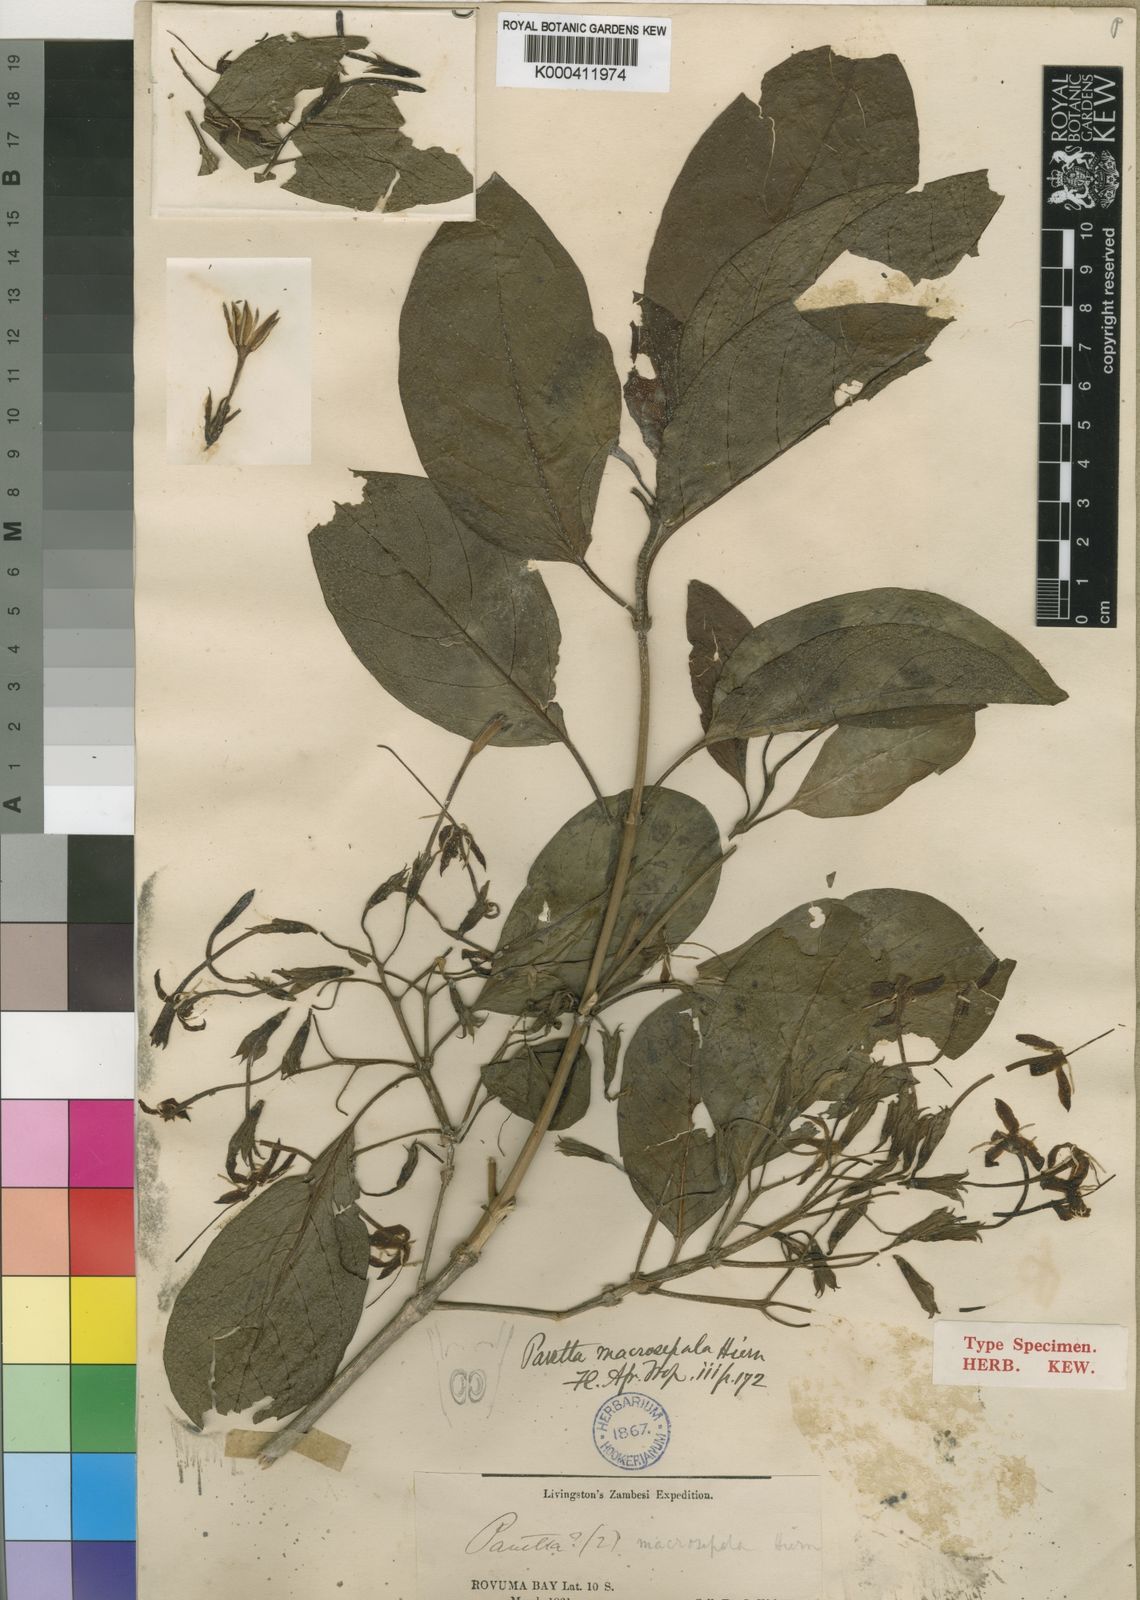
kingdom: Plantae
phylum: Tracheophyta
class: Magnoliopsida
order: Gentianales
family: Rubiaceae
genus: Pavetta
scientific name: Pavetta macrosepala
